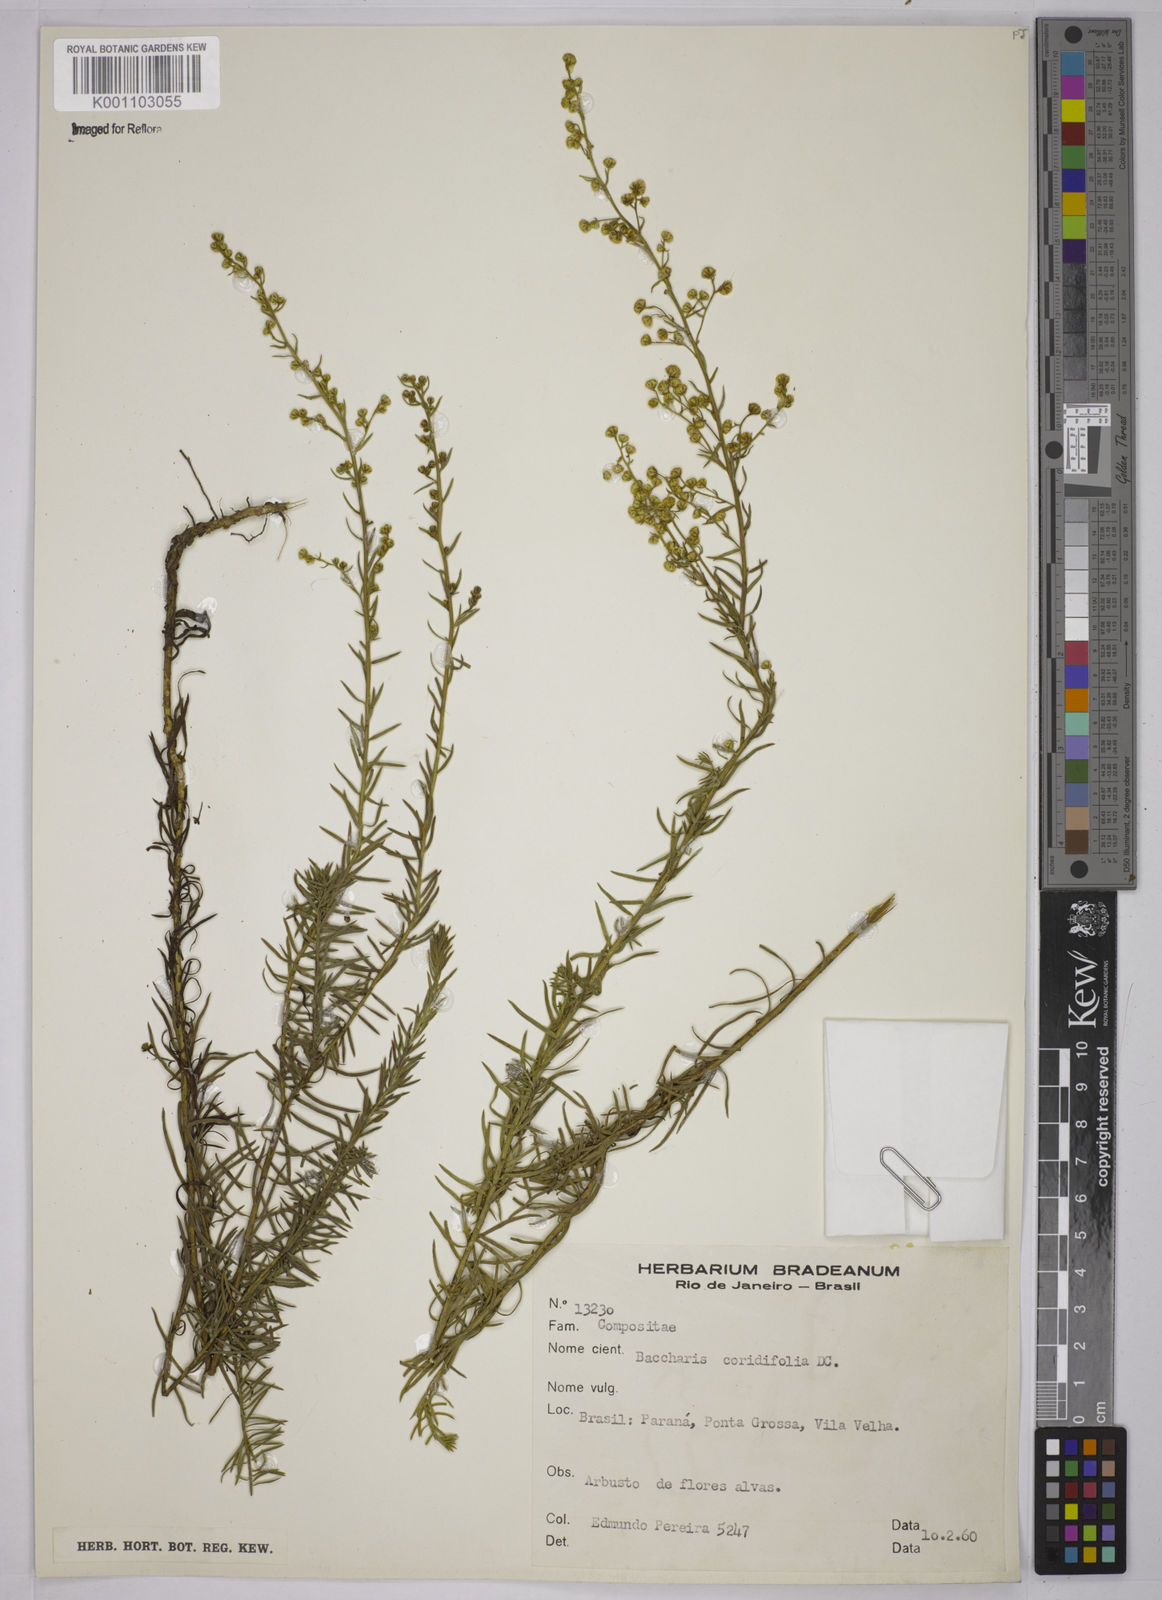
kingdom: Plantae
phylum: Tracheophyta
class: Magnoliopsida
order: Asterales
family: Asteraceae
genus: Baccharis
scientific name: Baccharis coridifolia
